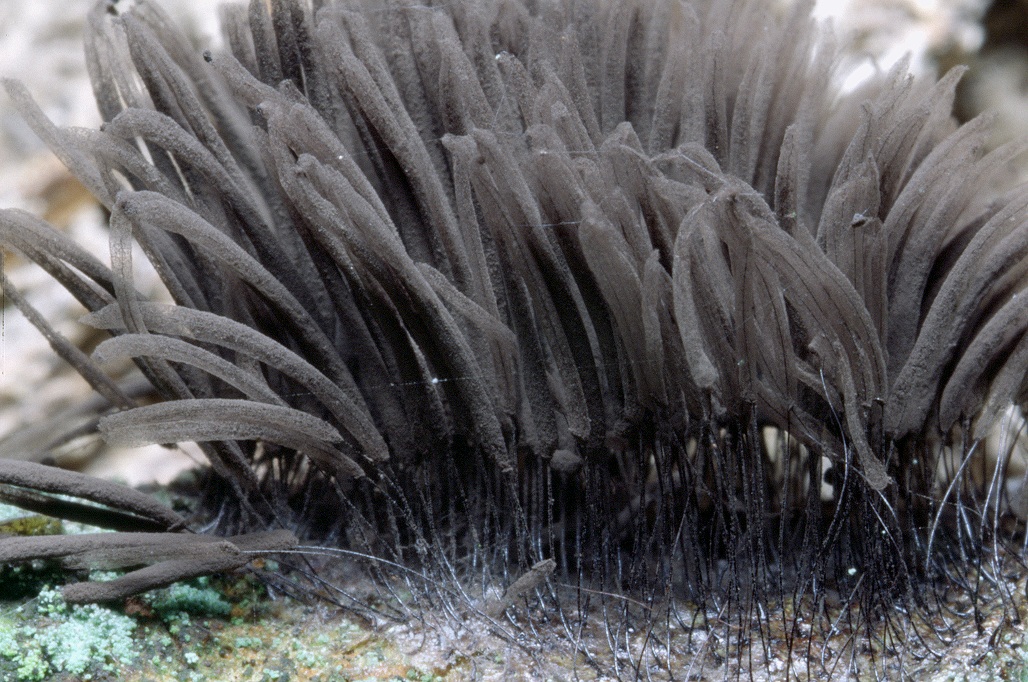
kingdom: Protozoa
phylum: Mycetozoa
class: Myxomycetes
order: Stemonitidales
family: Stemonitidaceae
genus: Stemonitis
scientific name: Stemonitis fusca
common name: sodbrun støvkølle
